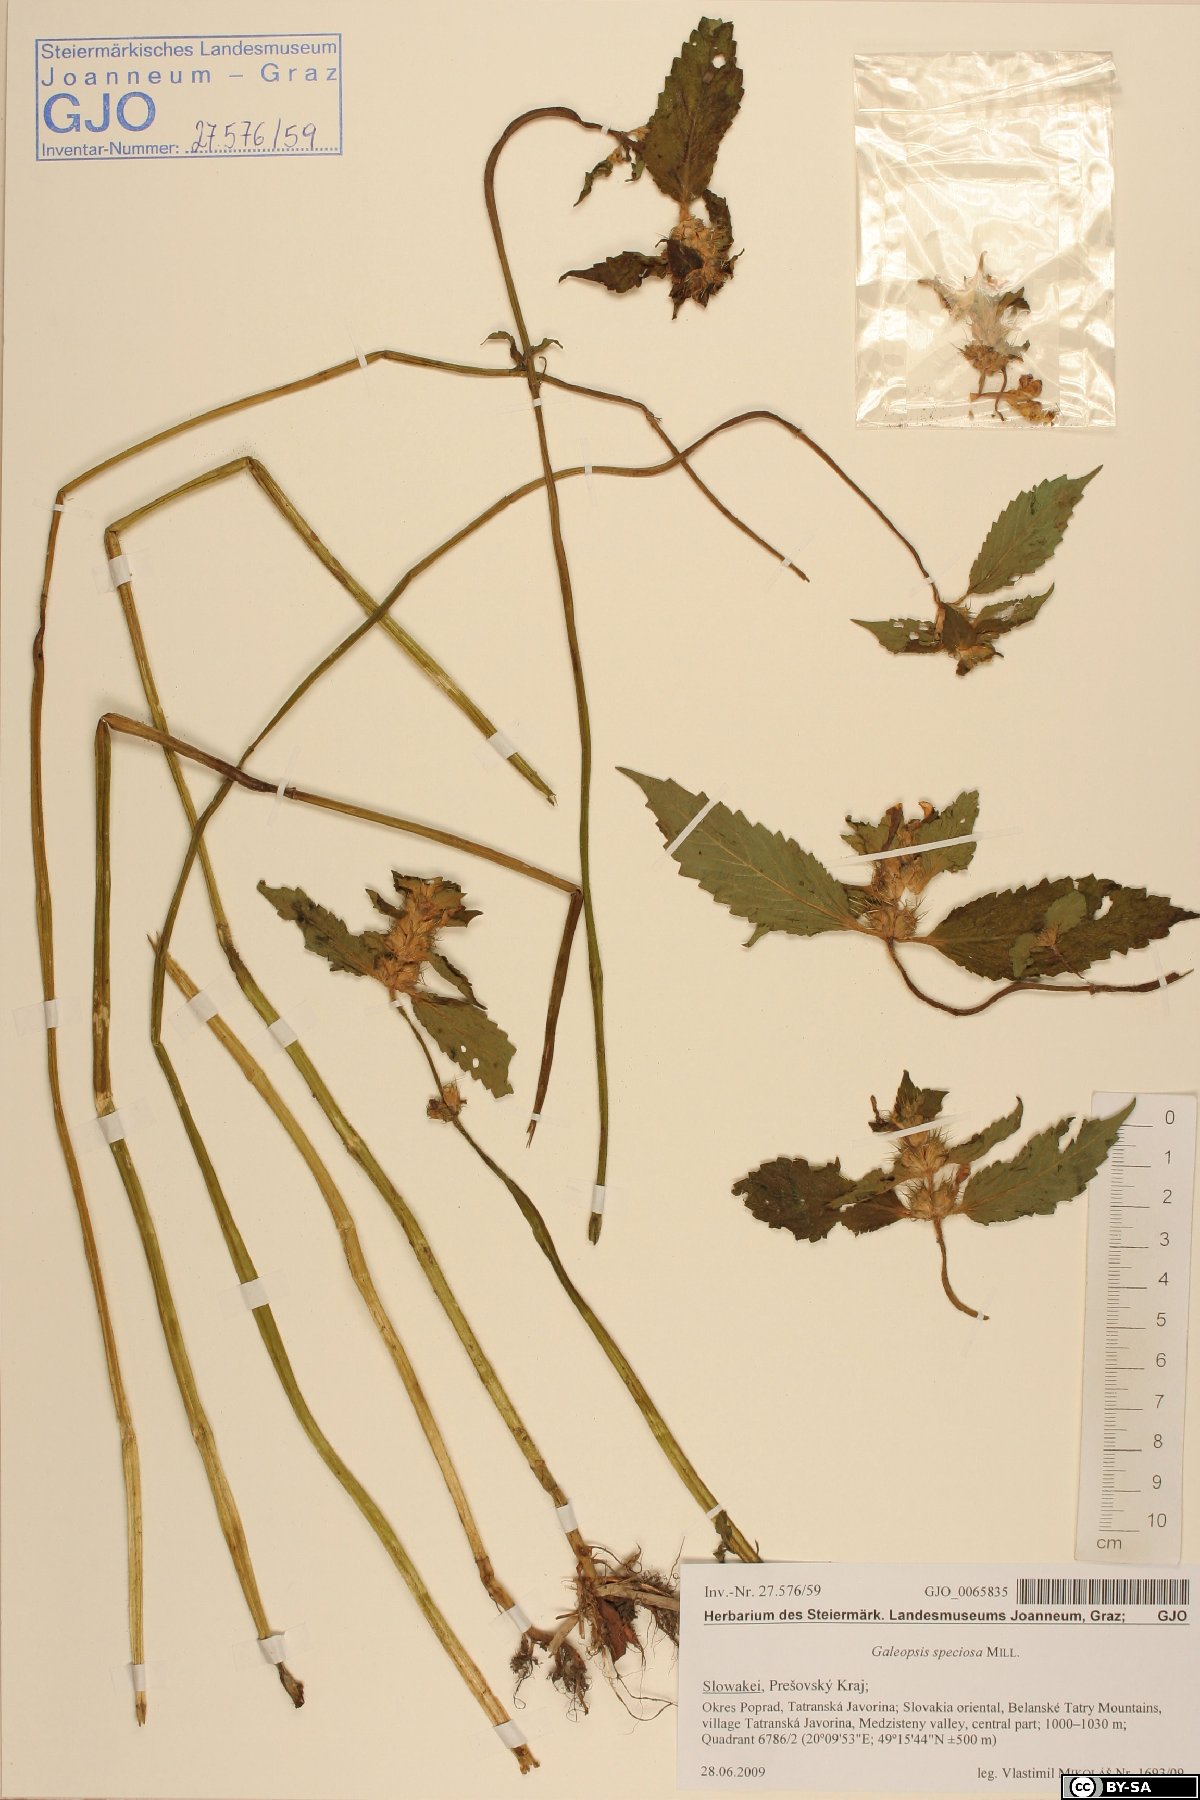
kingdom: Plantae
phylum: Tracheophyta
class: Magnoliopsida
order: Lamiales
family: Lamiaceae
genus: Galeopsis
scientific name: Galeopsis speciosa
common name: Large-flowered hemp-nettle
